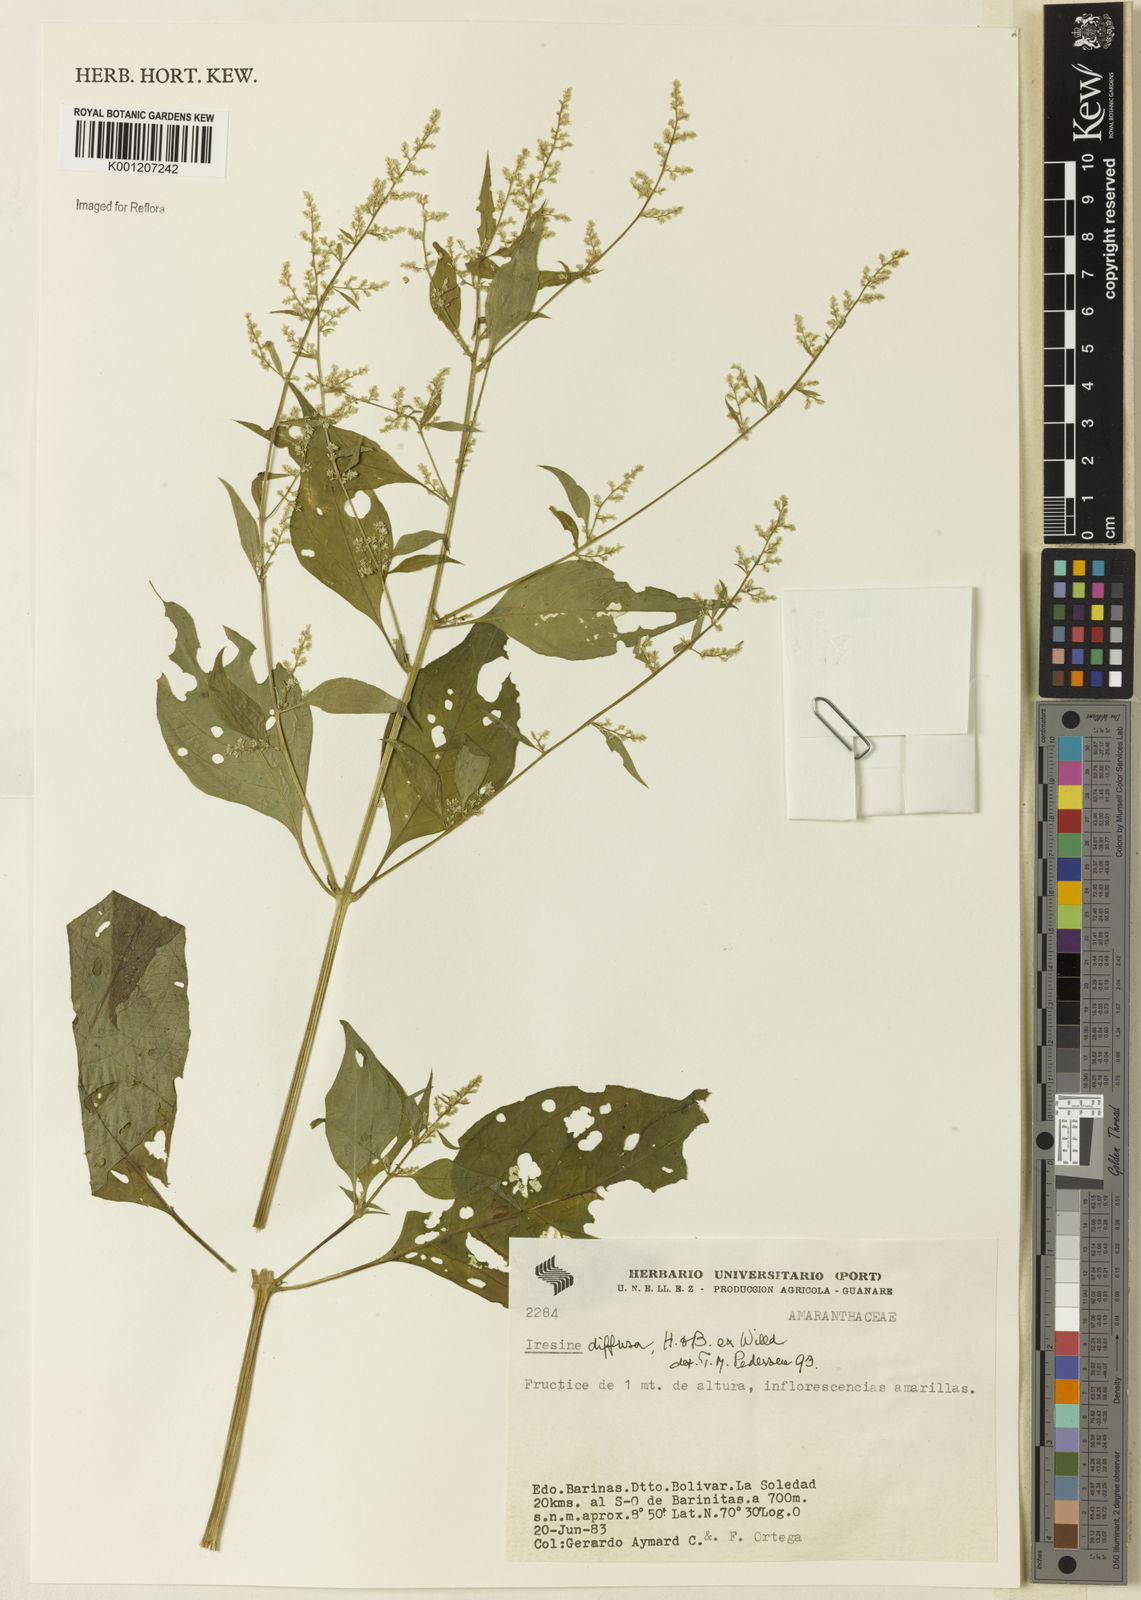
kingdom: Plantae
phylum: Tracheophyta
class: Magnoliopsida
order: Caryophyllales
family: Amaranthaceae
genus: Iresine
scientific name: Iresine rhizomatosa
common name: Juda's-bush
